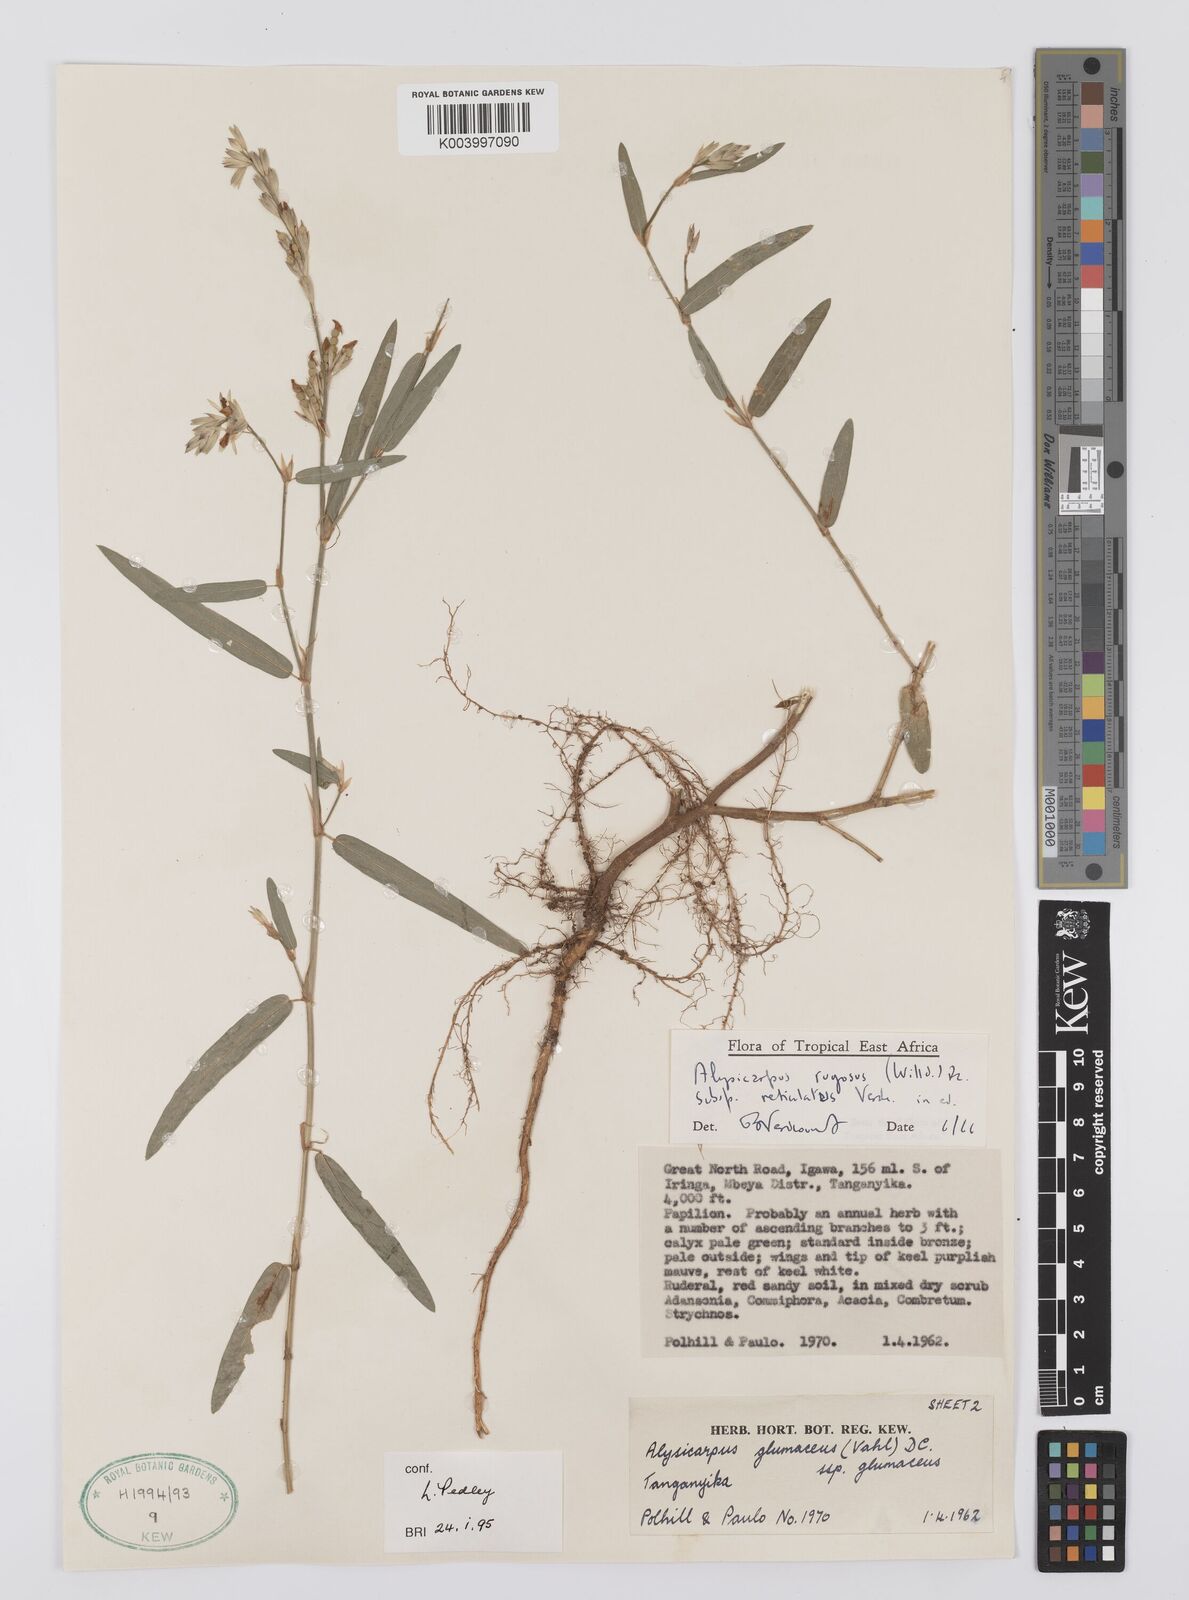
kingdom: Plantae
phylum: Tracheophyta
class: Magnoliopsida
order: Fabales
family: Fabaceae
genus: Alysicarpus
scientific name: Alysicarpus rugosus
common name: Red moneywort
